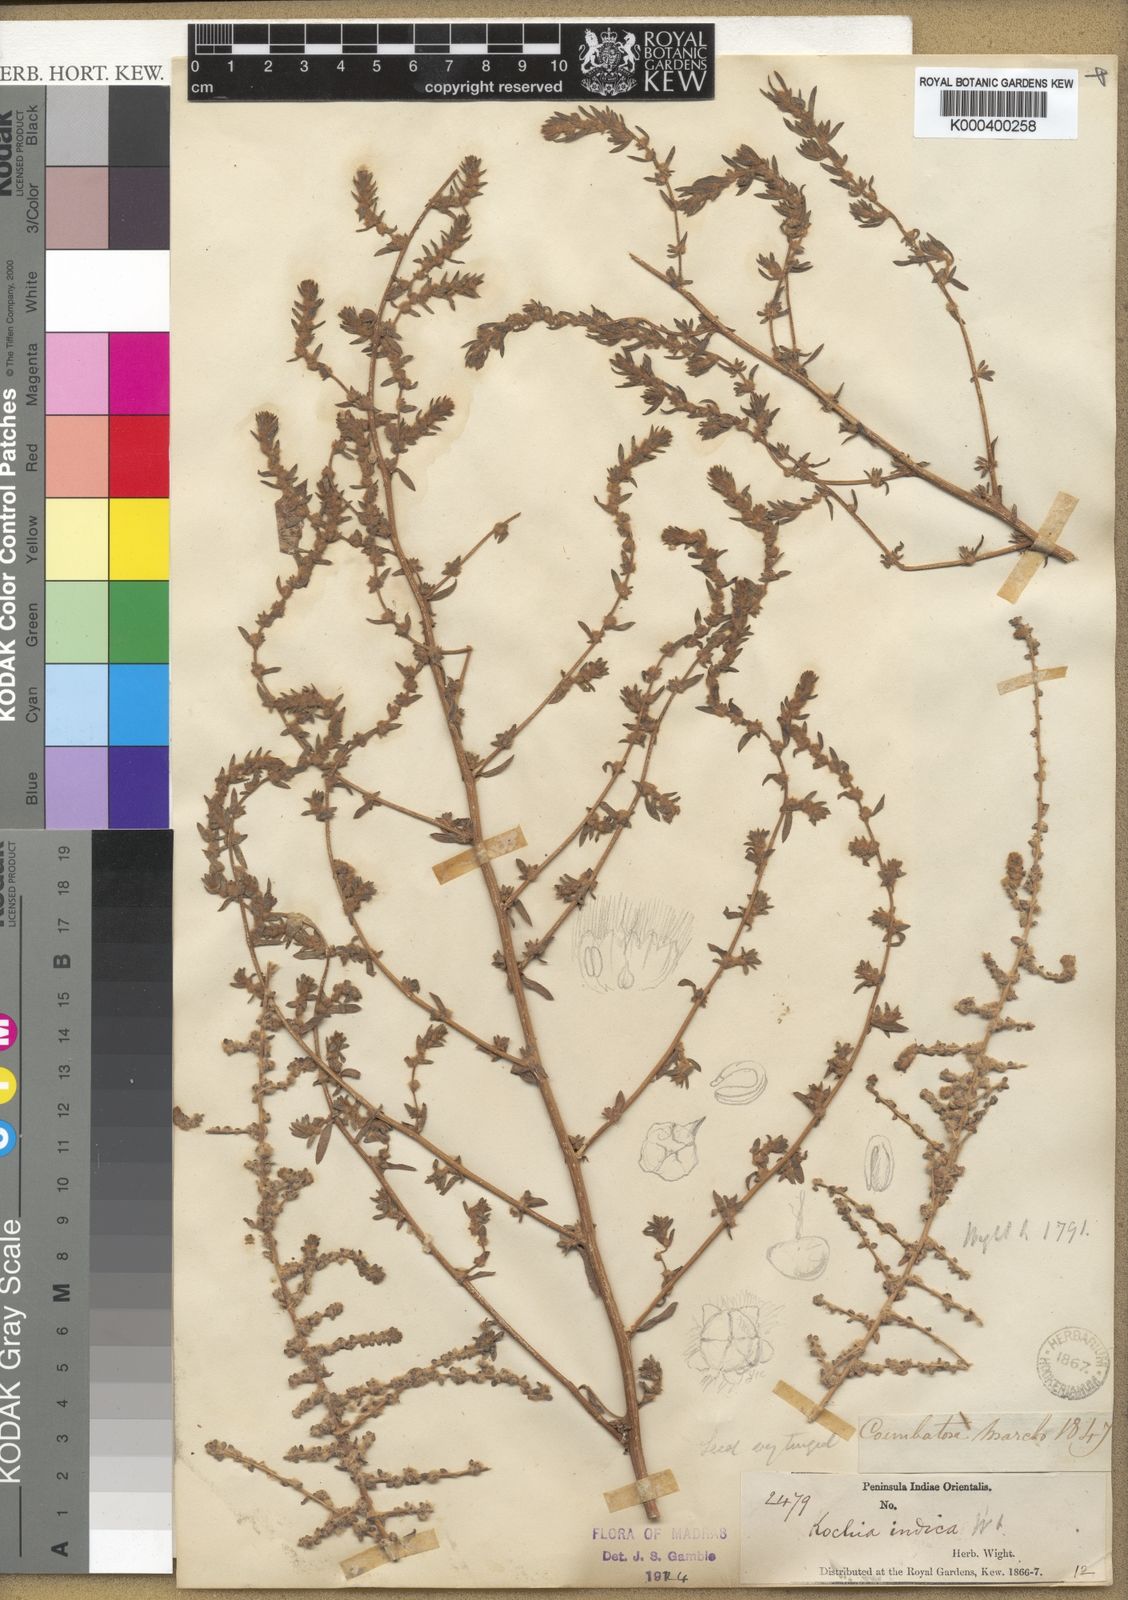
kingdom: Plantae
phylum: Tracheophyta
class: Magnoliopsida
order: Caryophyllales
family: Amaranthaceae
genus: Bassia
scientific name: Bassia indica
